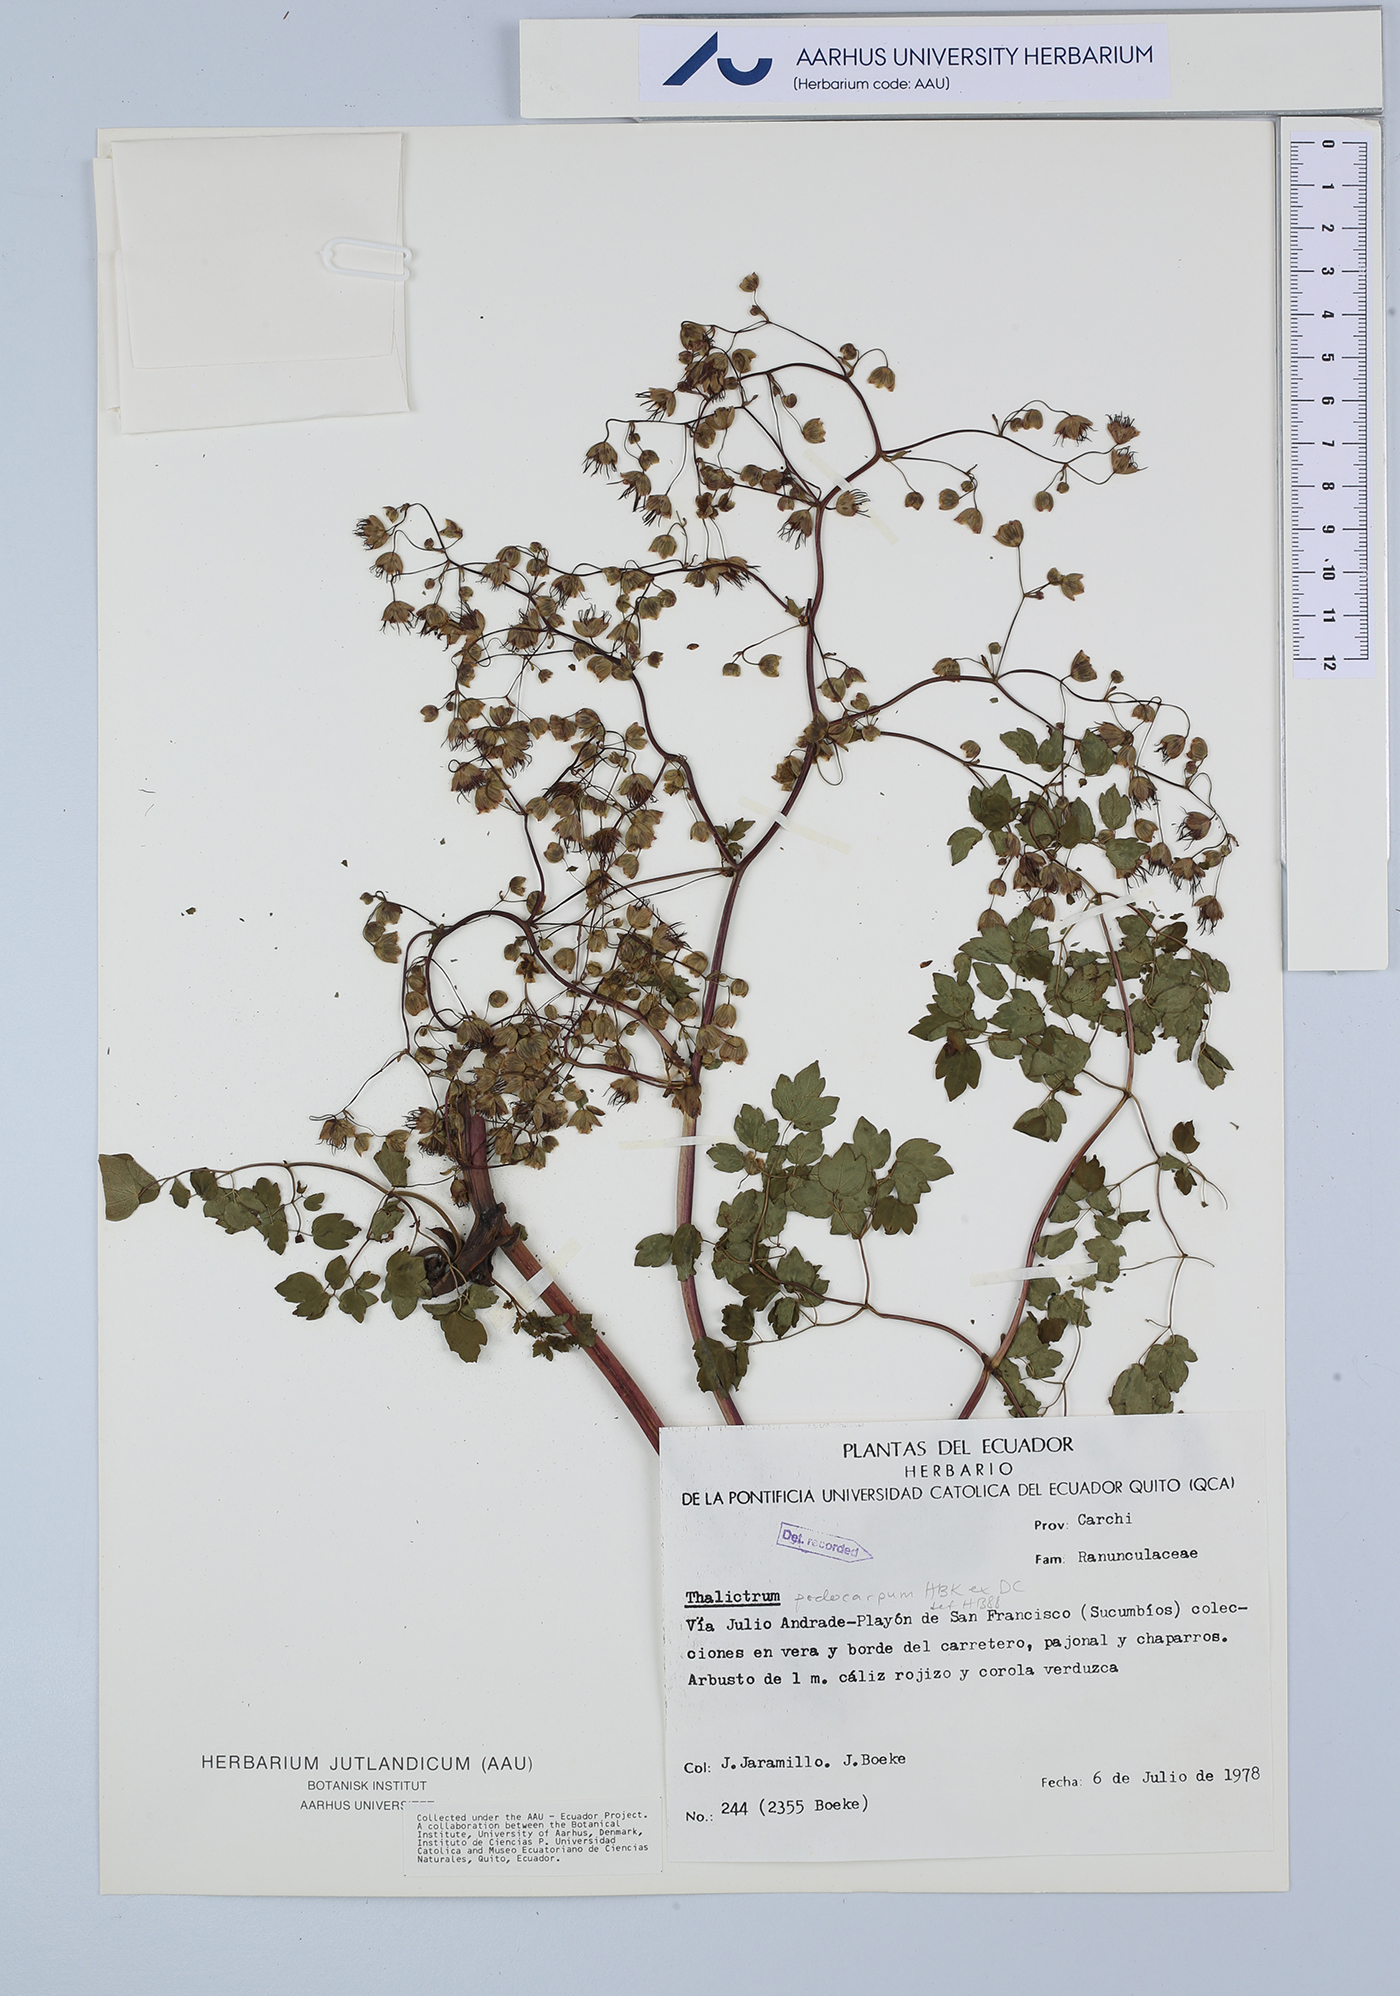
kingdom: Plantae
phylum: Tracheophyta
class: Magnoliopsida
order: Ranunculales
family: Ranunculaceae
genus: Thalictrum
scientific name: Thalictrum podocarpum
